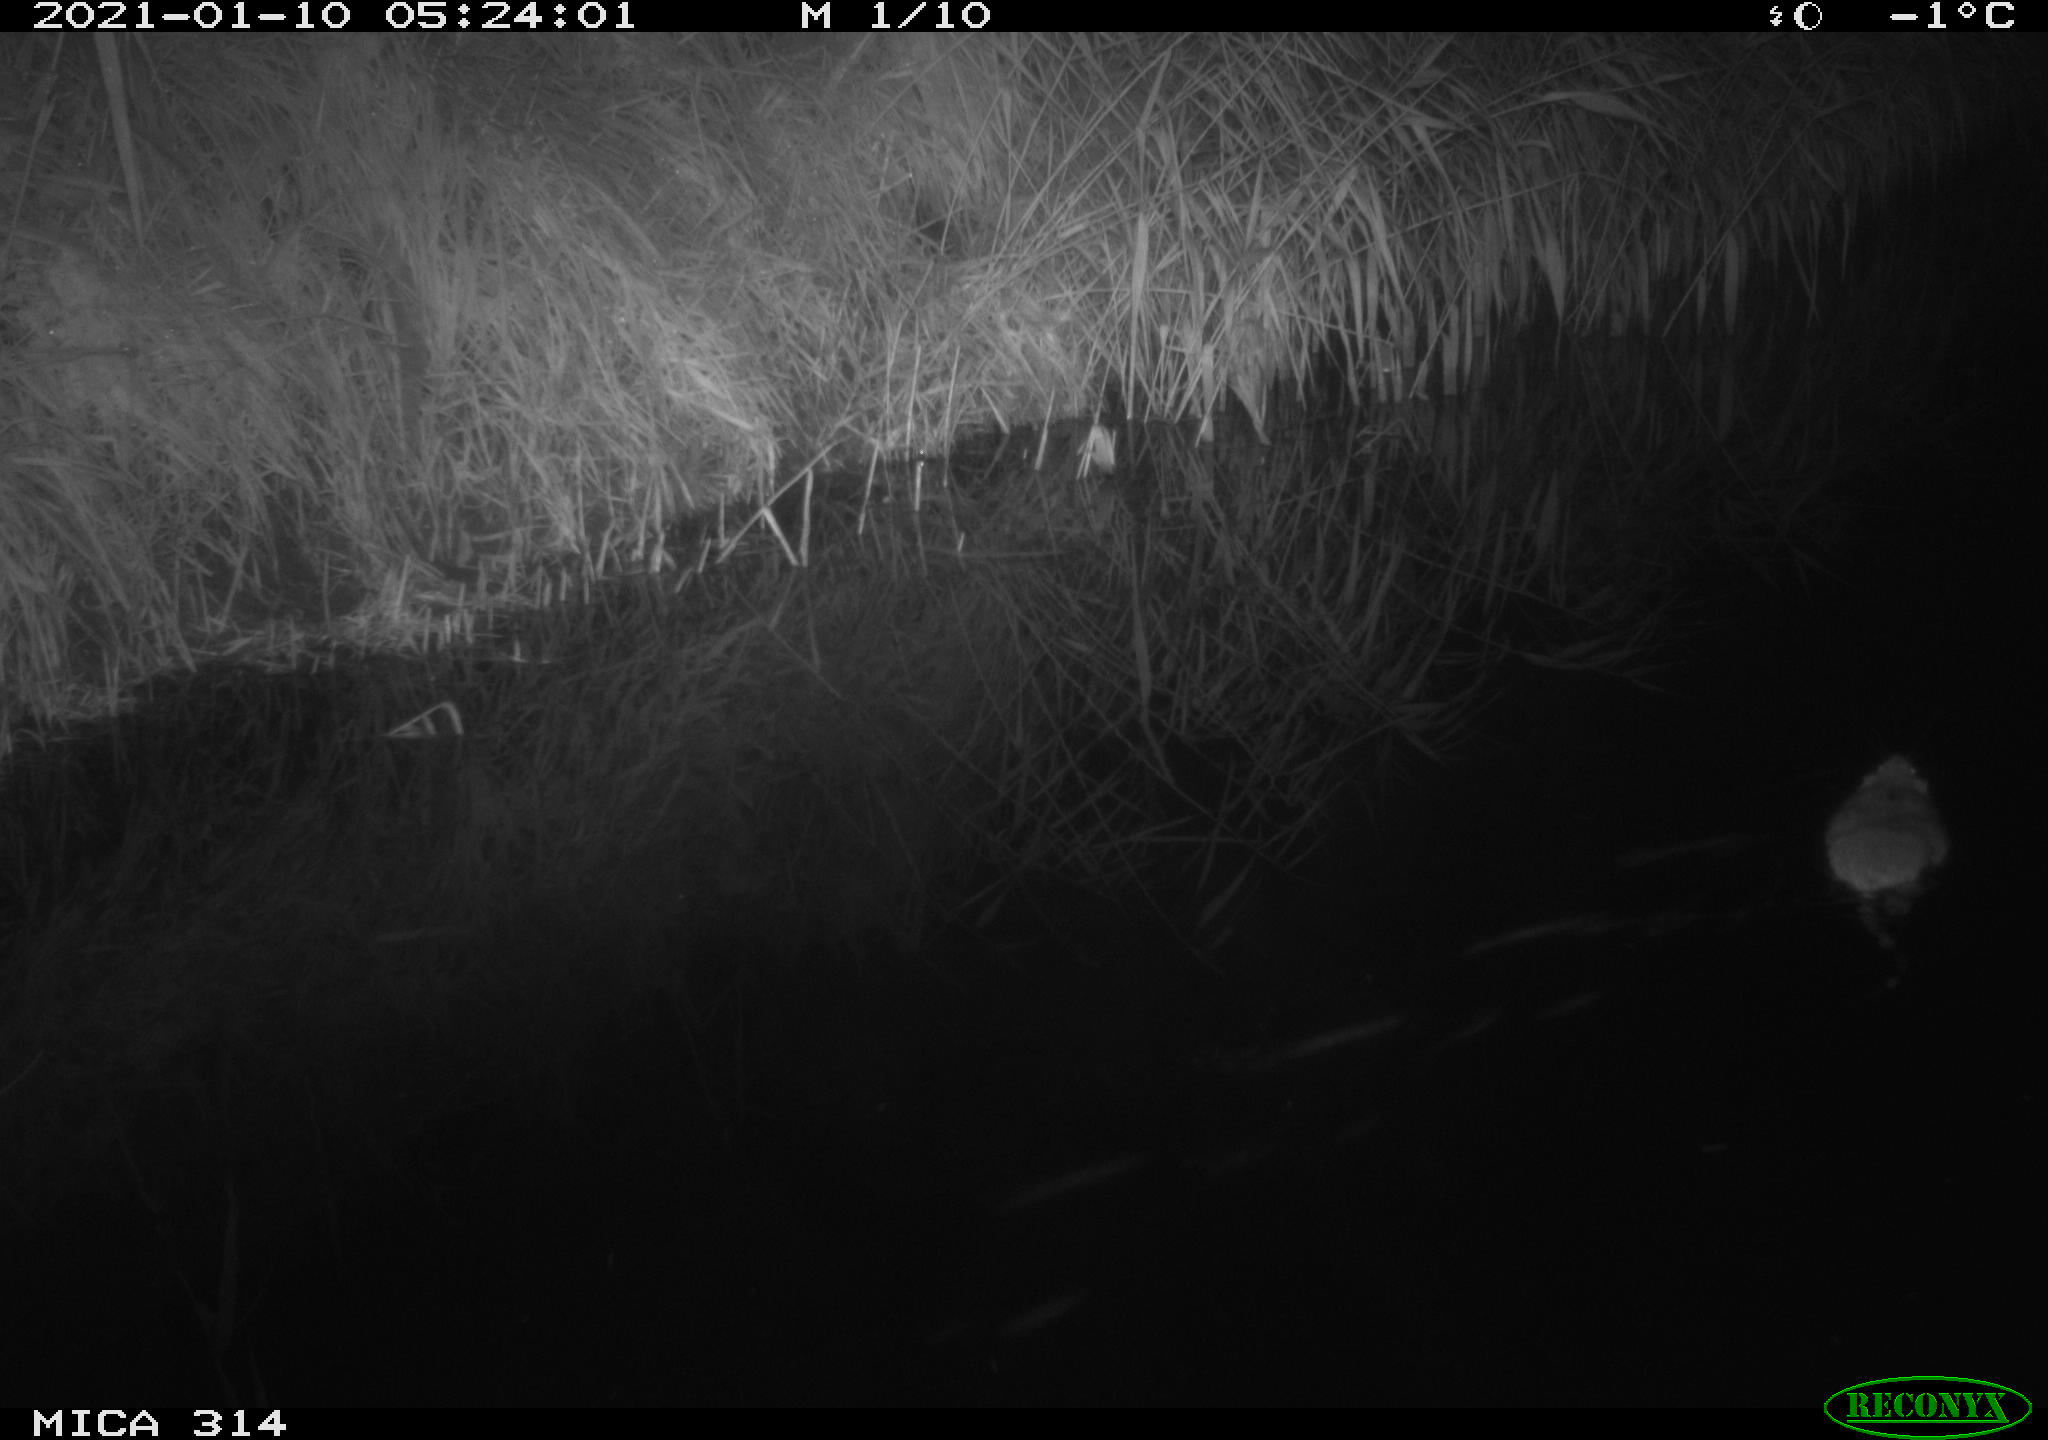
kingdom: Animalia
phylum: Chordata
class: Mammalia
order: Rodentia
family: Muridae
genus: Rattus
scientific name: Rattus norvegicus
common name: Brown rat
